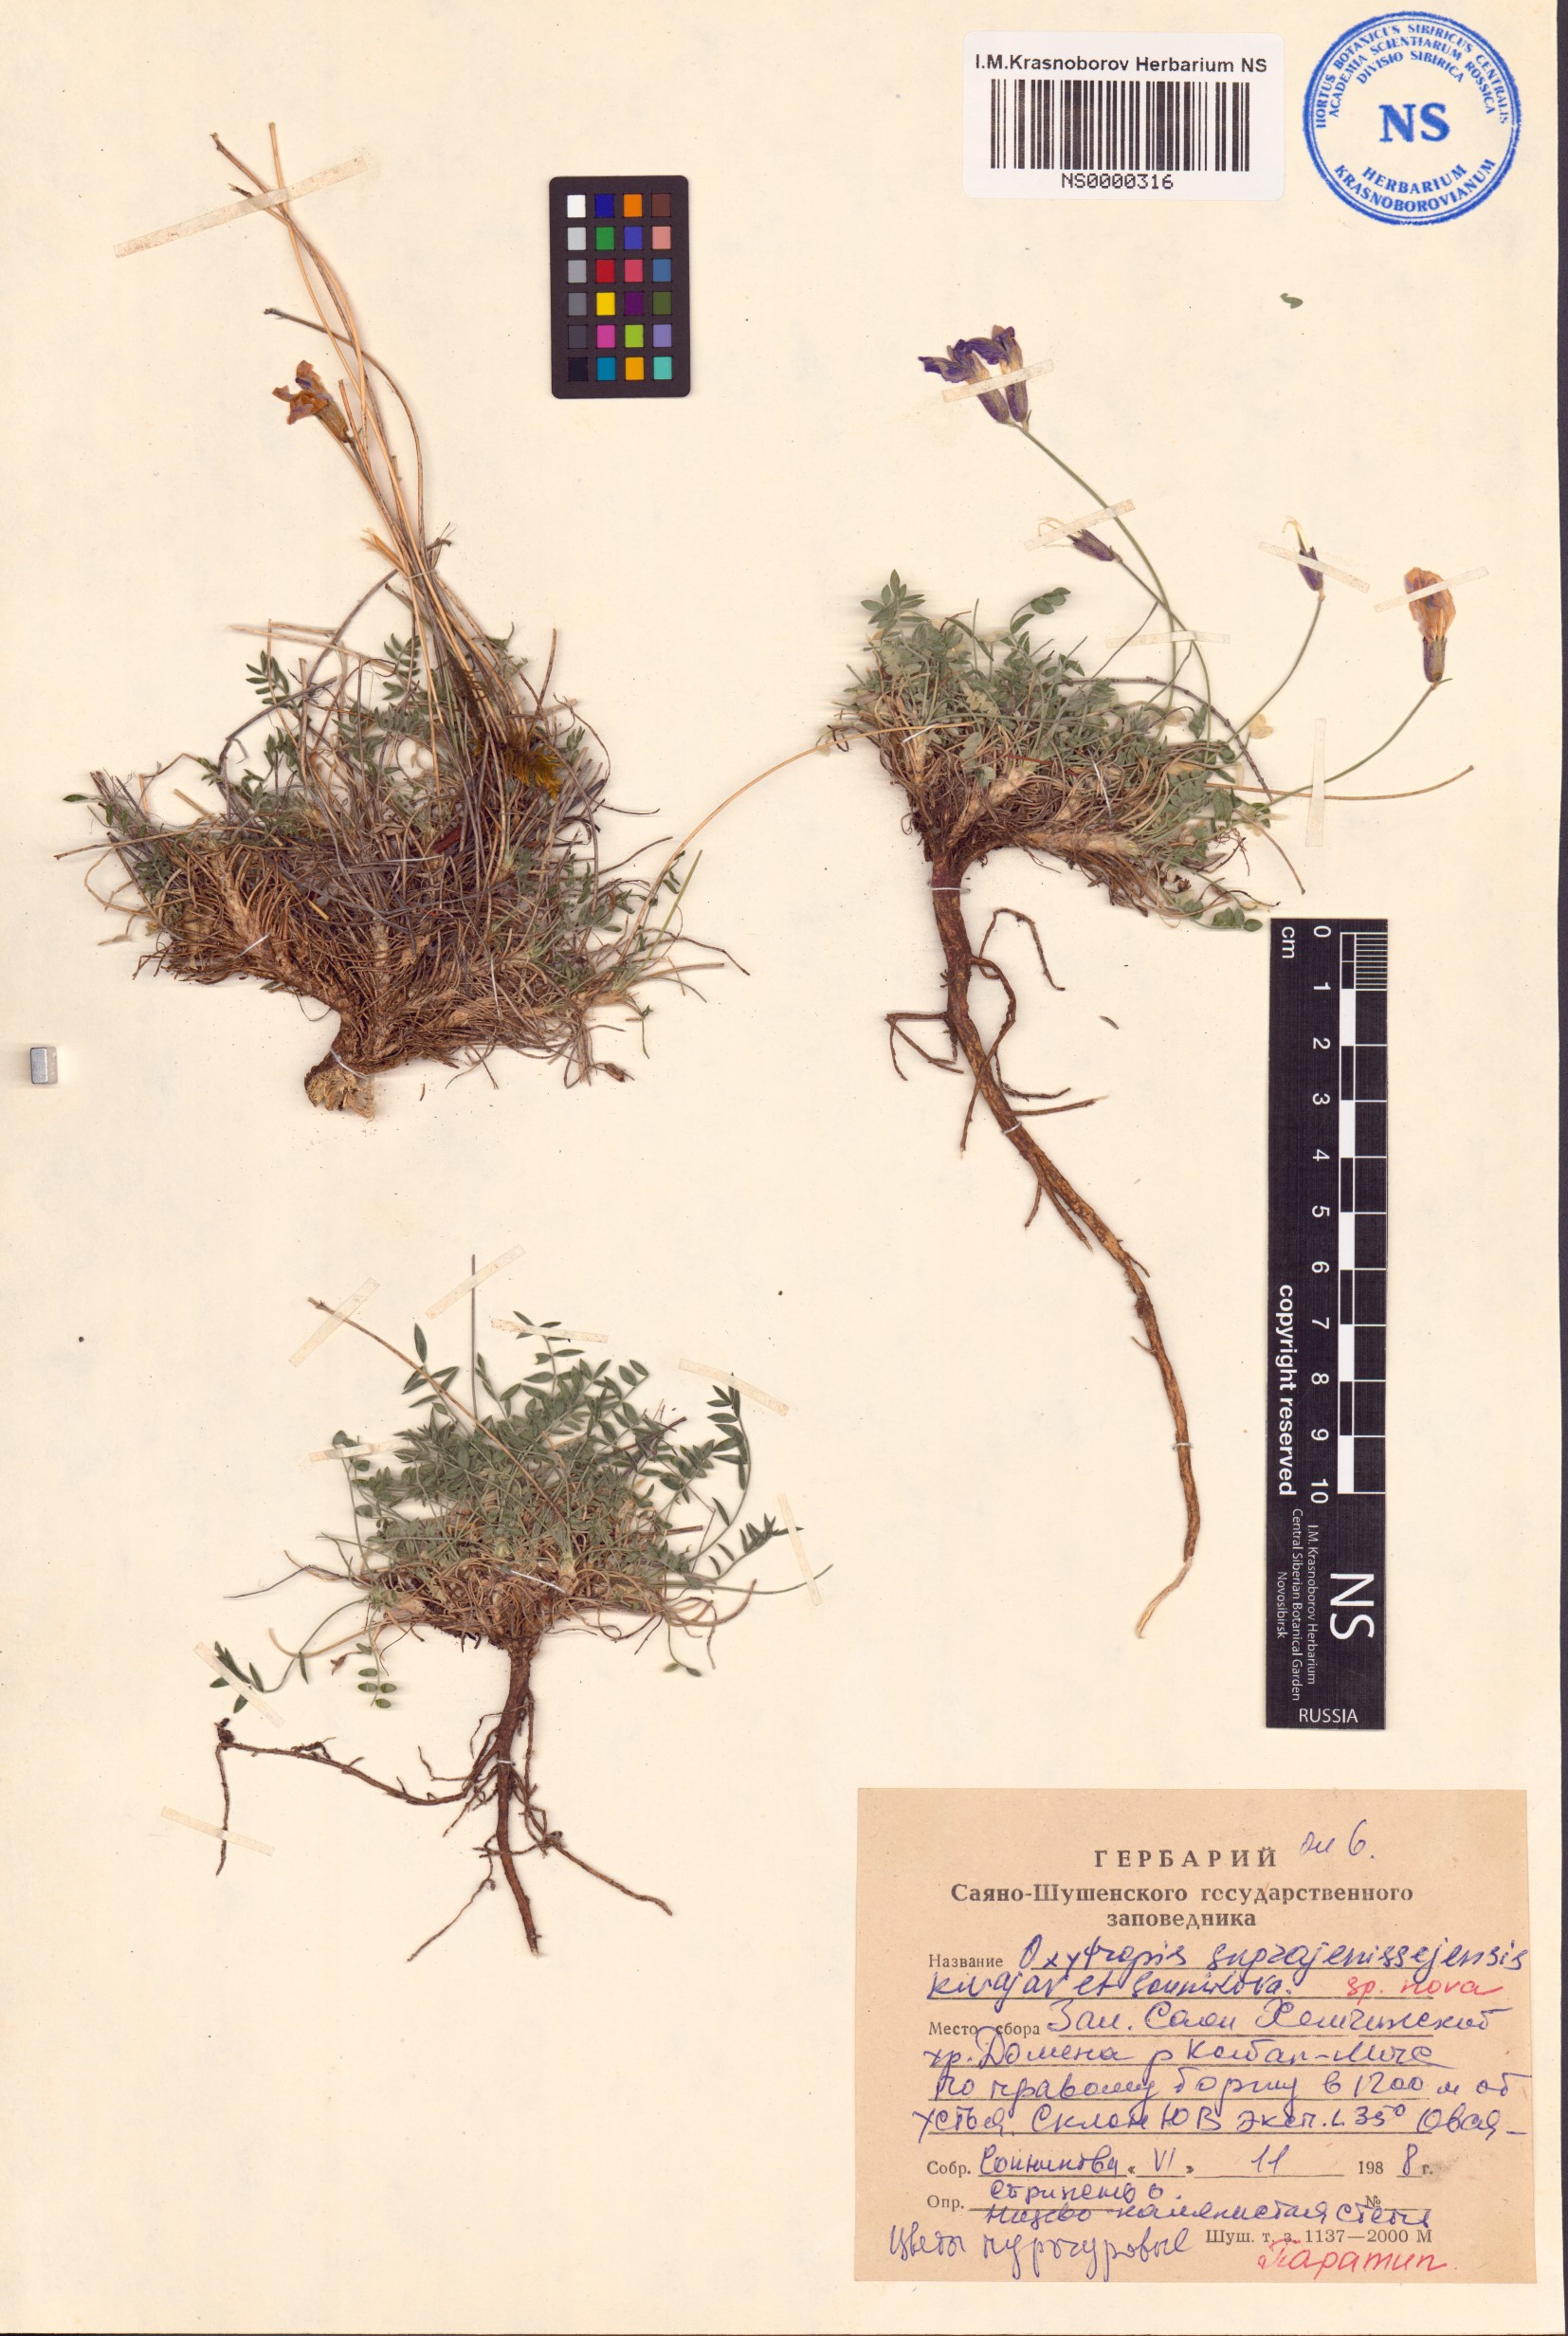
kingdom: Plantae
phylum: Tracheophyta
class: Magnoliopsida
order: Fabales
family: Fabaceae
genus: Oxytropis
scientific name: Oxytropis suprajenissejensis
